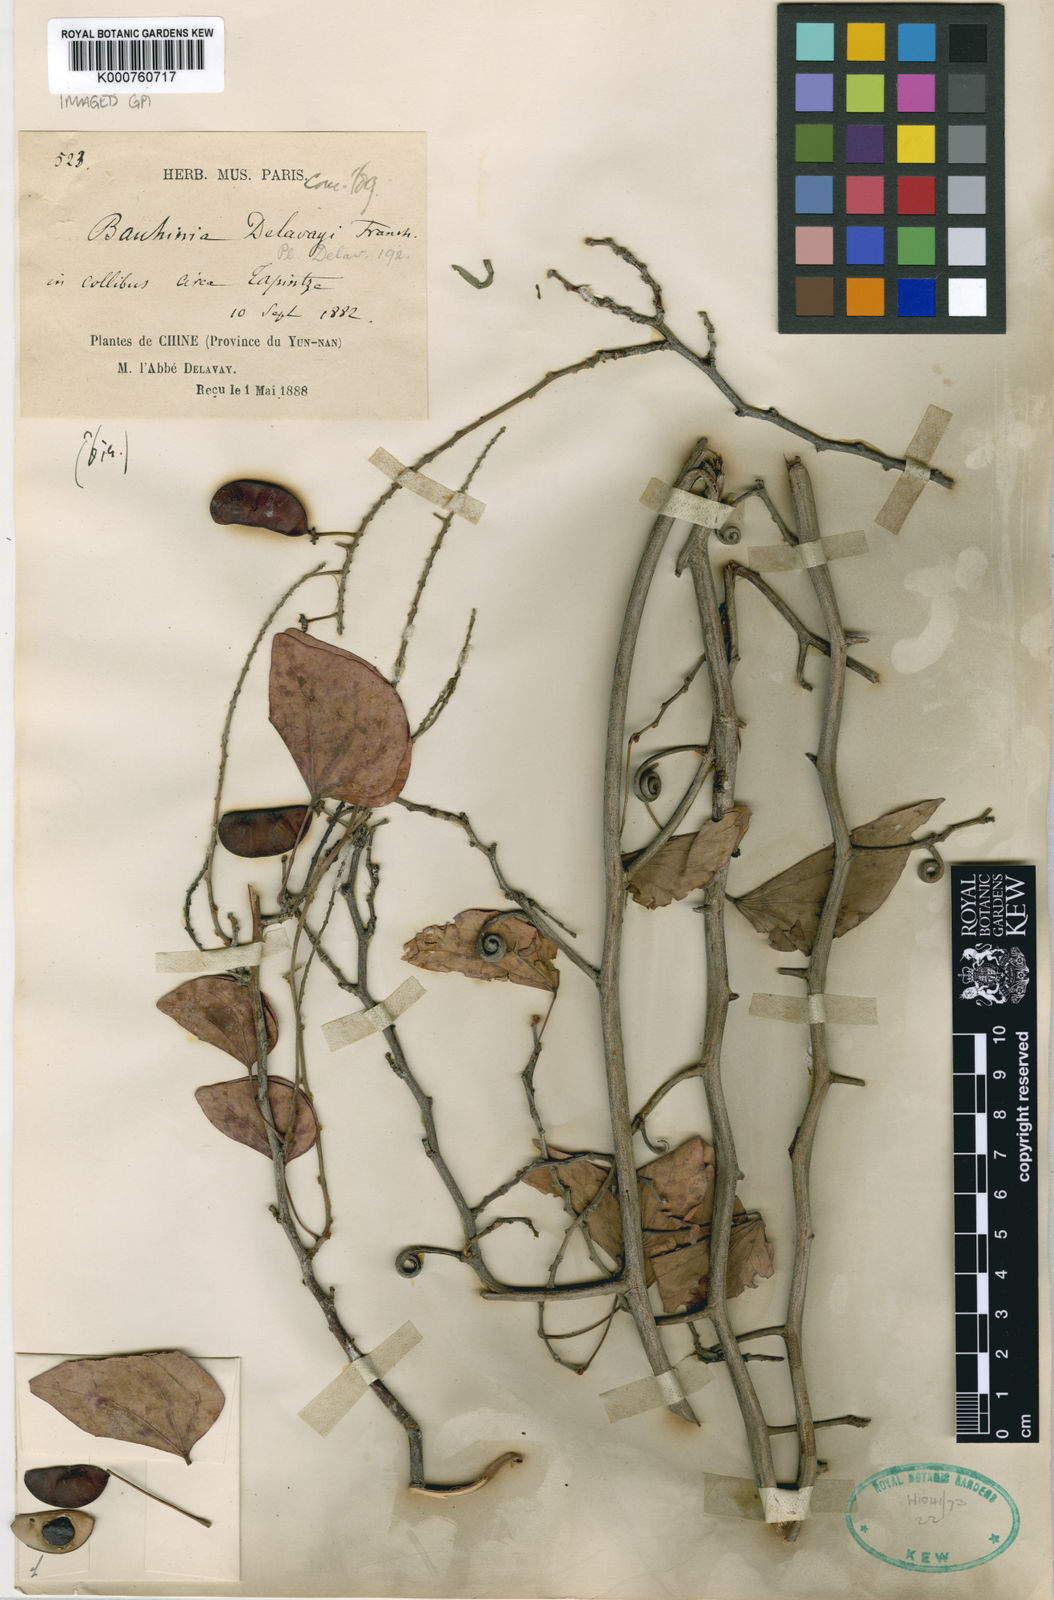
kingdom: Plantae
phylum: Tracheophyta
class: Magnoliopsida
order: Fabales
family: Fabaceae
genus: Phanera
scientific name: Phanera delavayi
